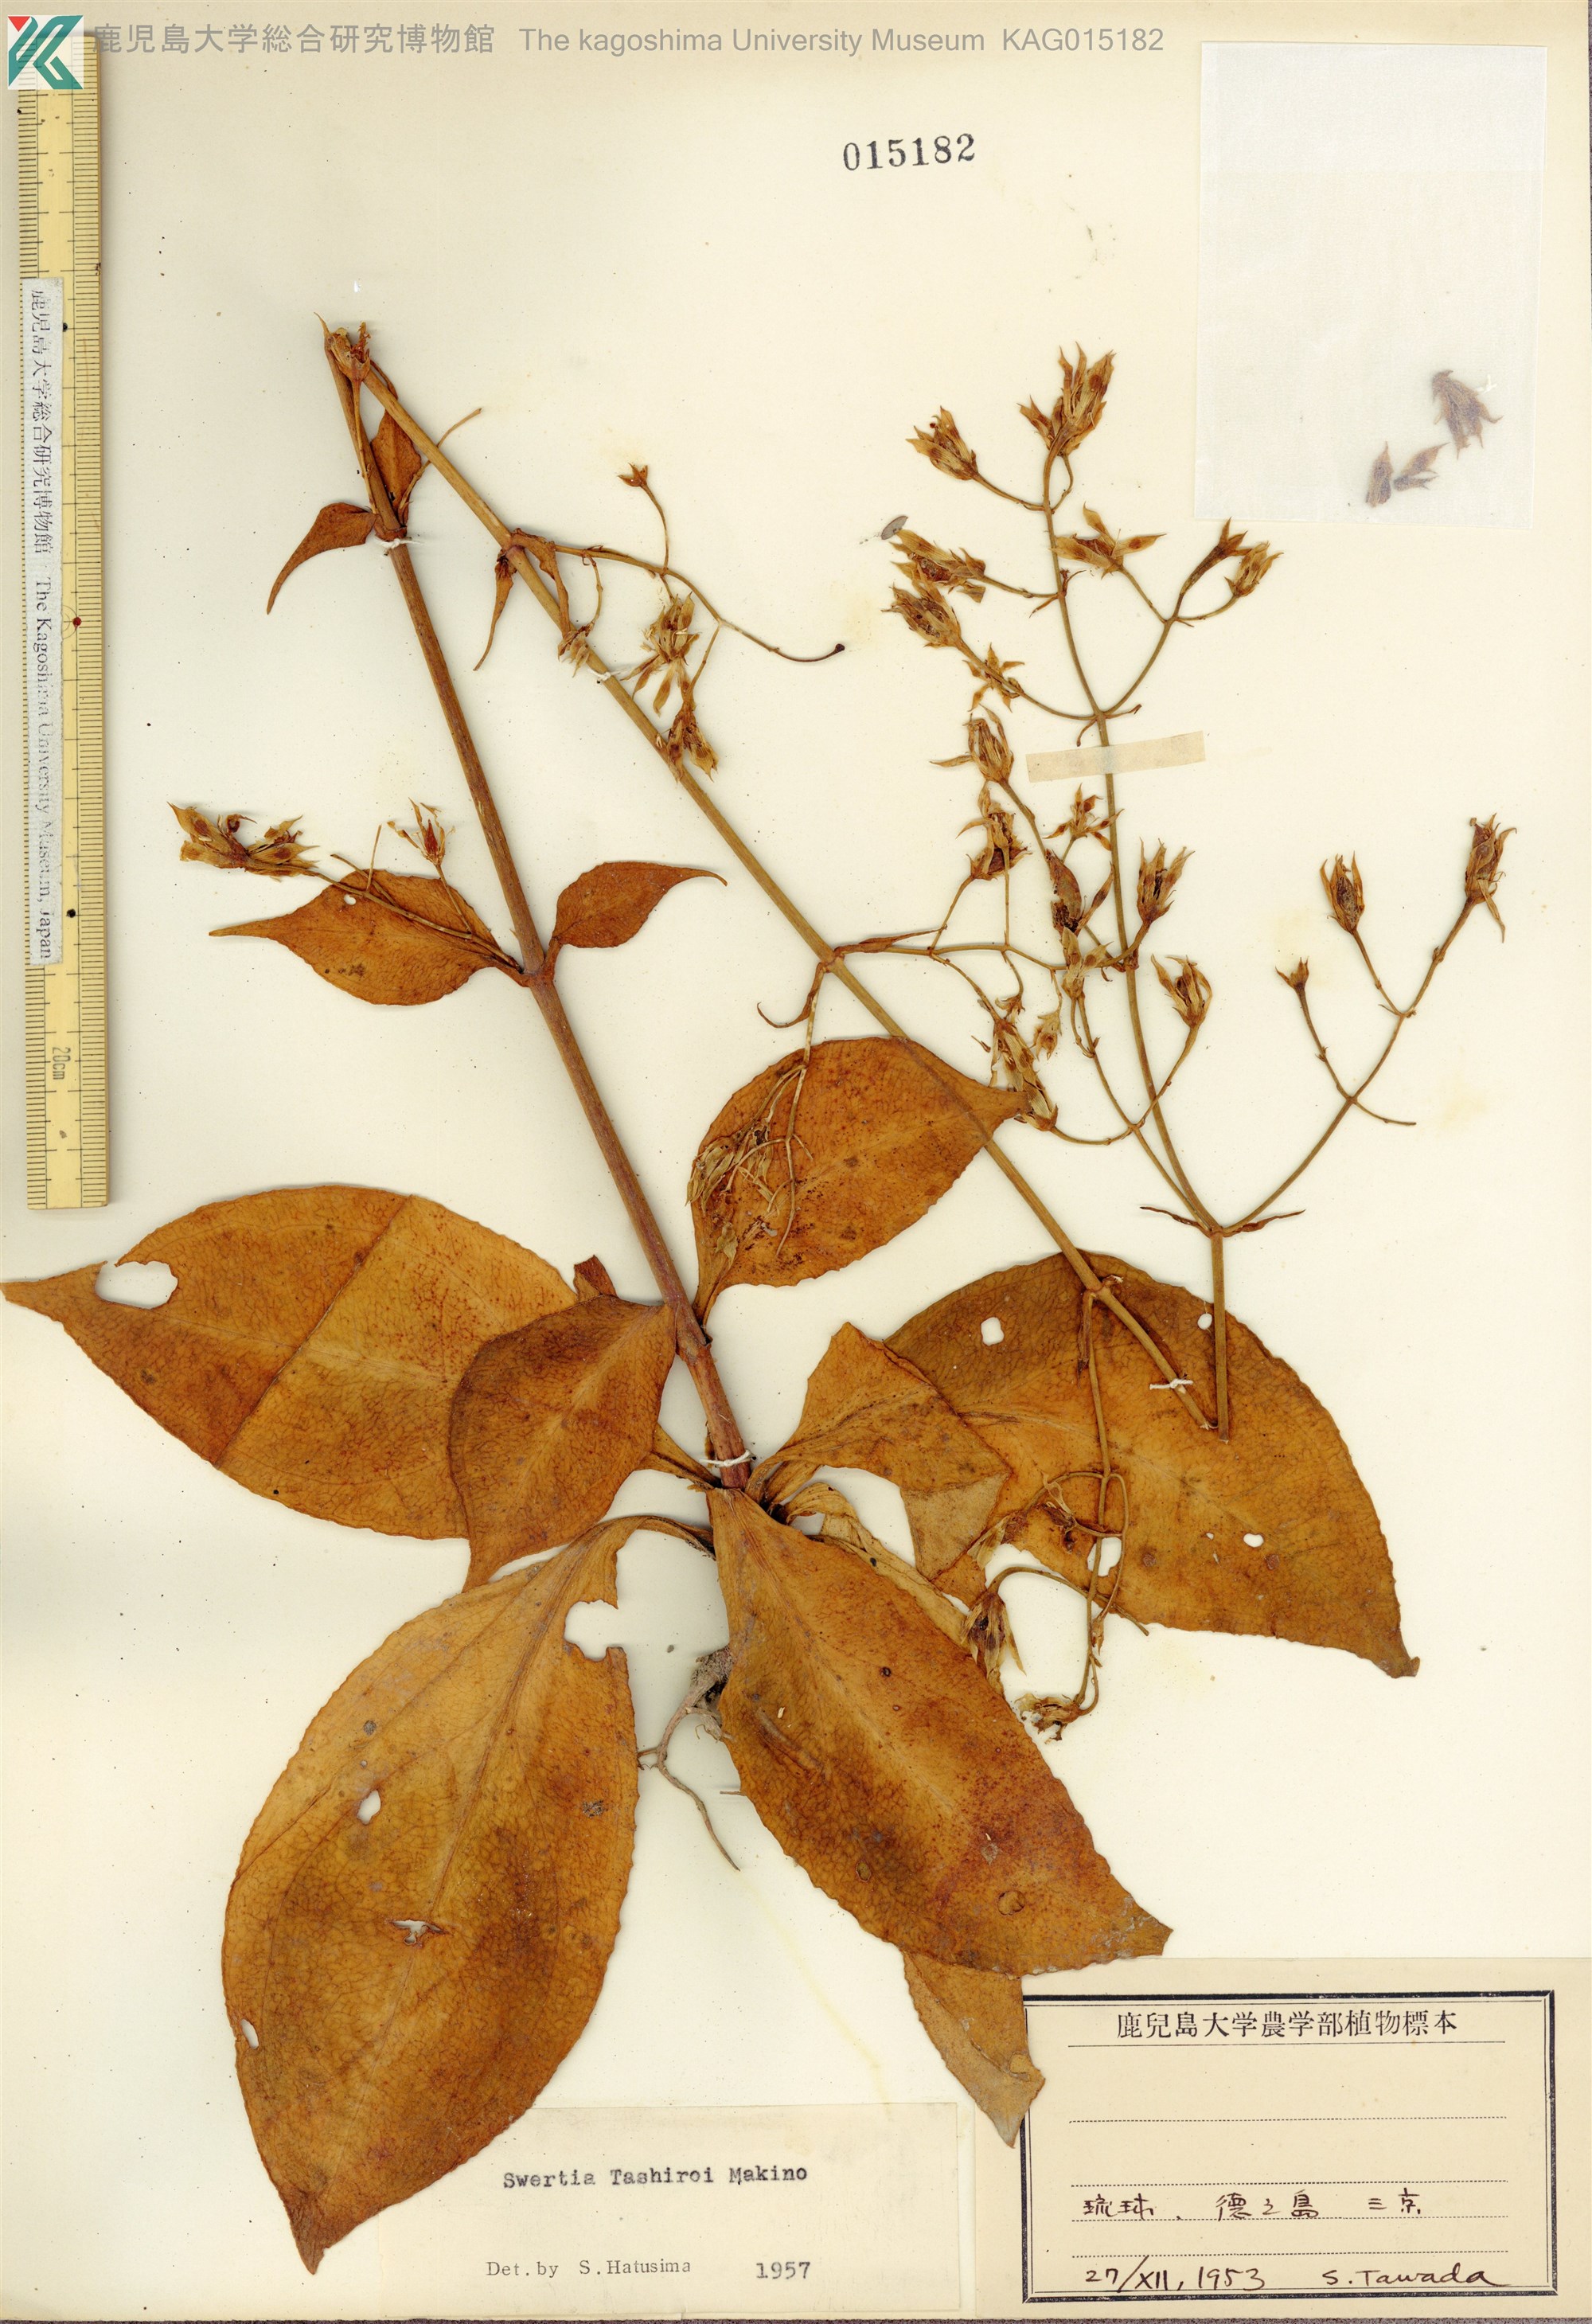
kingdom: Plantae
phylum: Tracheophyta
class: Magnoliopsida
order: Gentianales
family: Gentianaceae
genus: Swertia
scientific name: Swertia tashiroi
